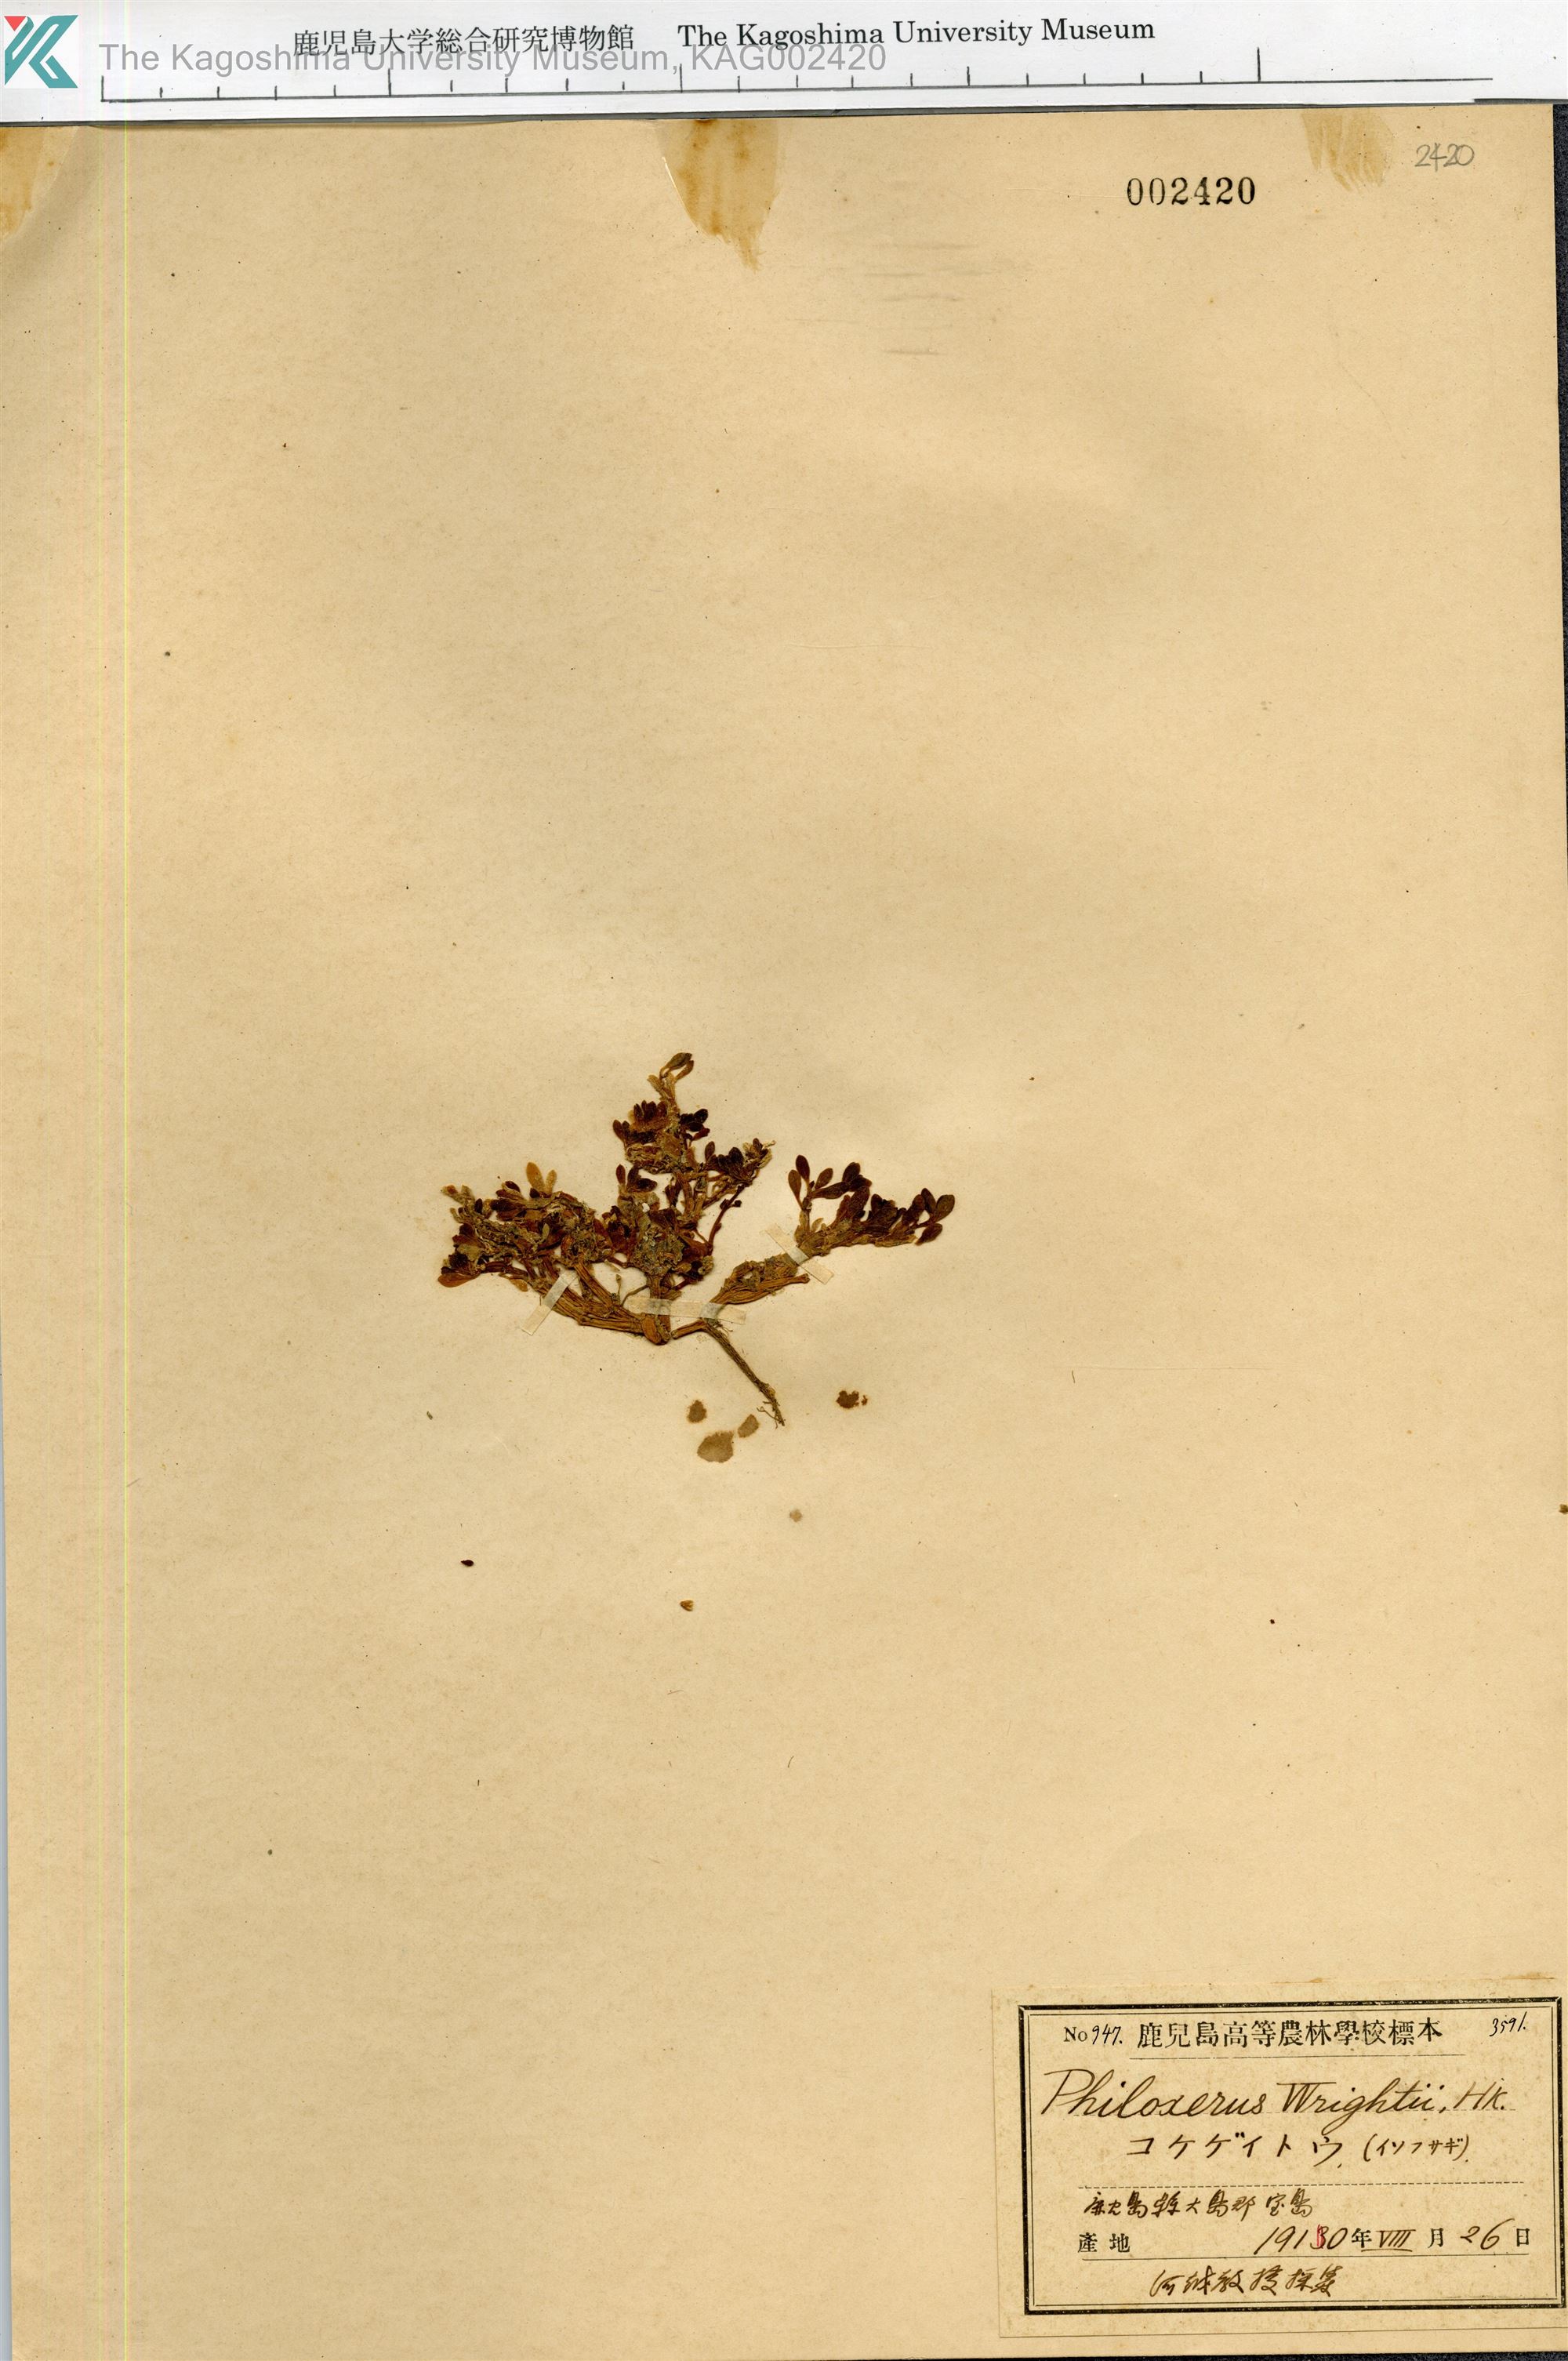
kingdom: Plantae
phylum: Tracheophyta
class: Magnoliopsida
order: Caryophyllales
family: Amaranthaceae
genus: Gomphrena
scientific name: Gomphrena wrightii
